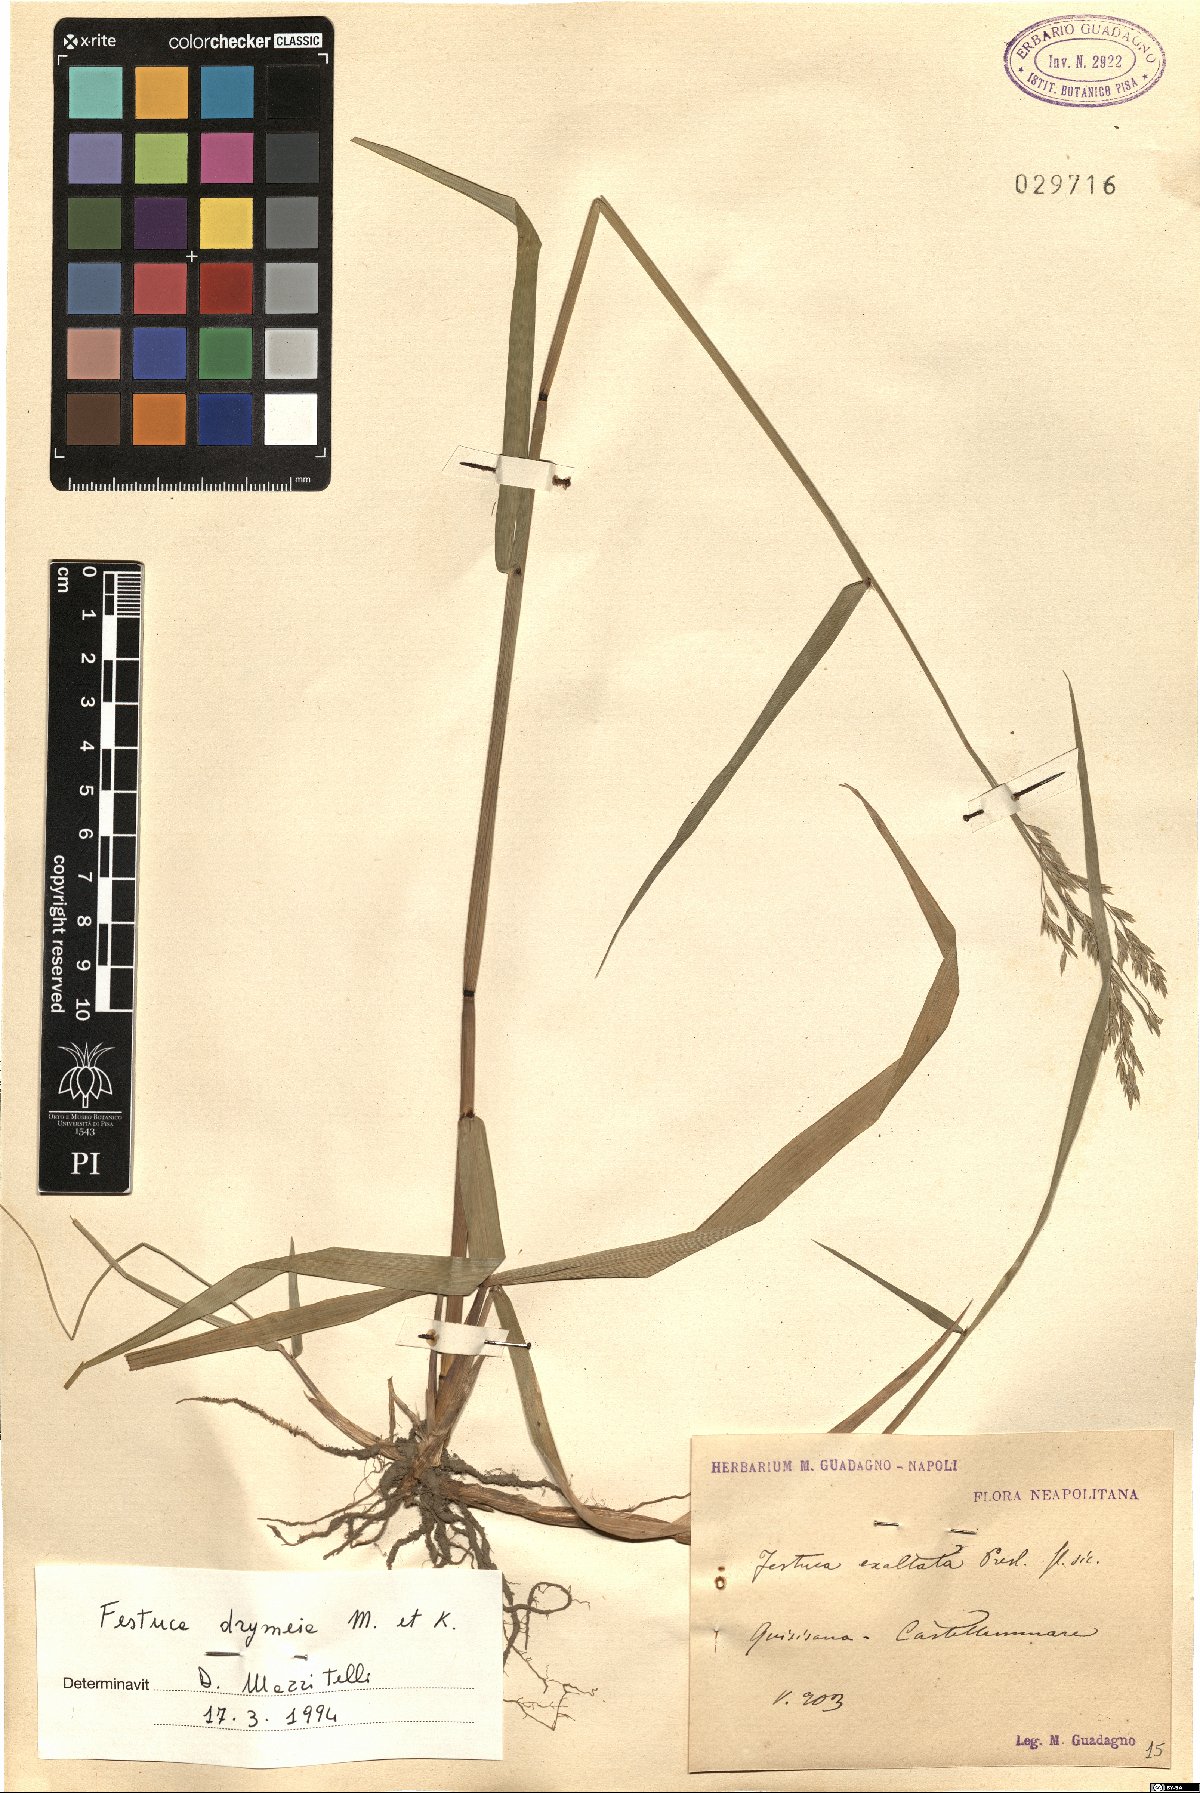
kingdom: Plantae
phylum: Tracheophyta
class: Liliopsida
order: Poales
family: Poaceae
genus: Festuca
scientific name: Festuca drymeja
